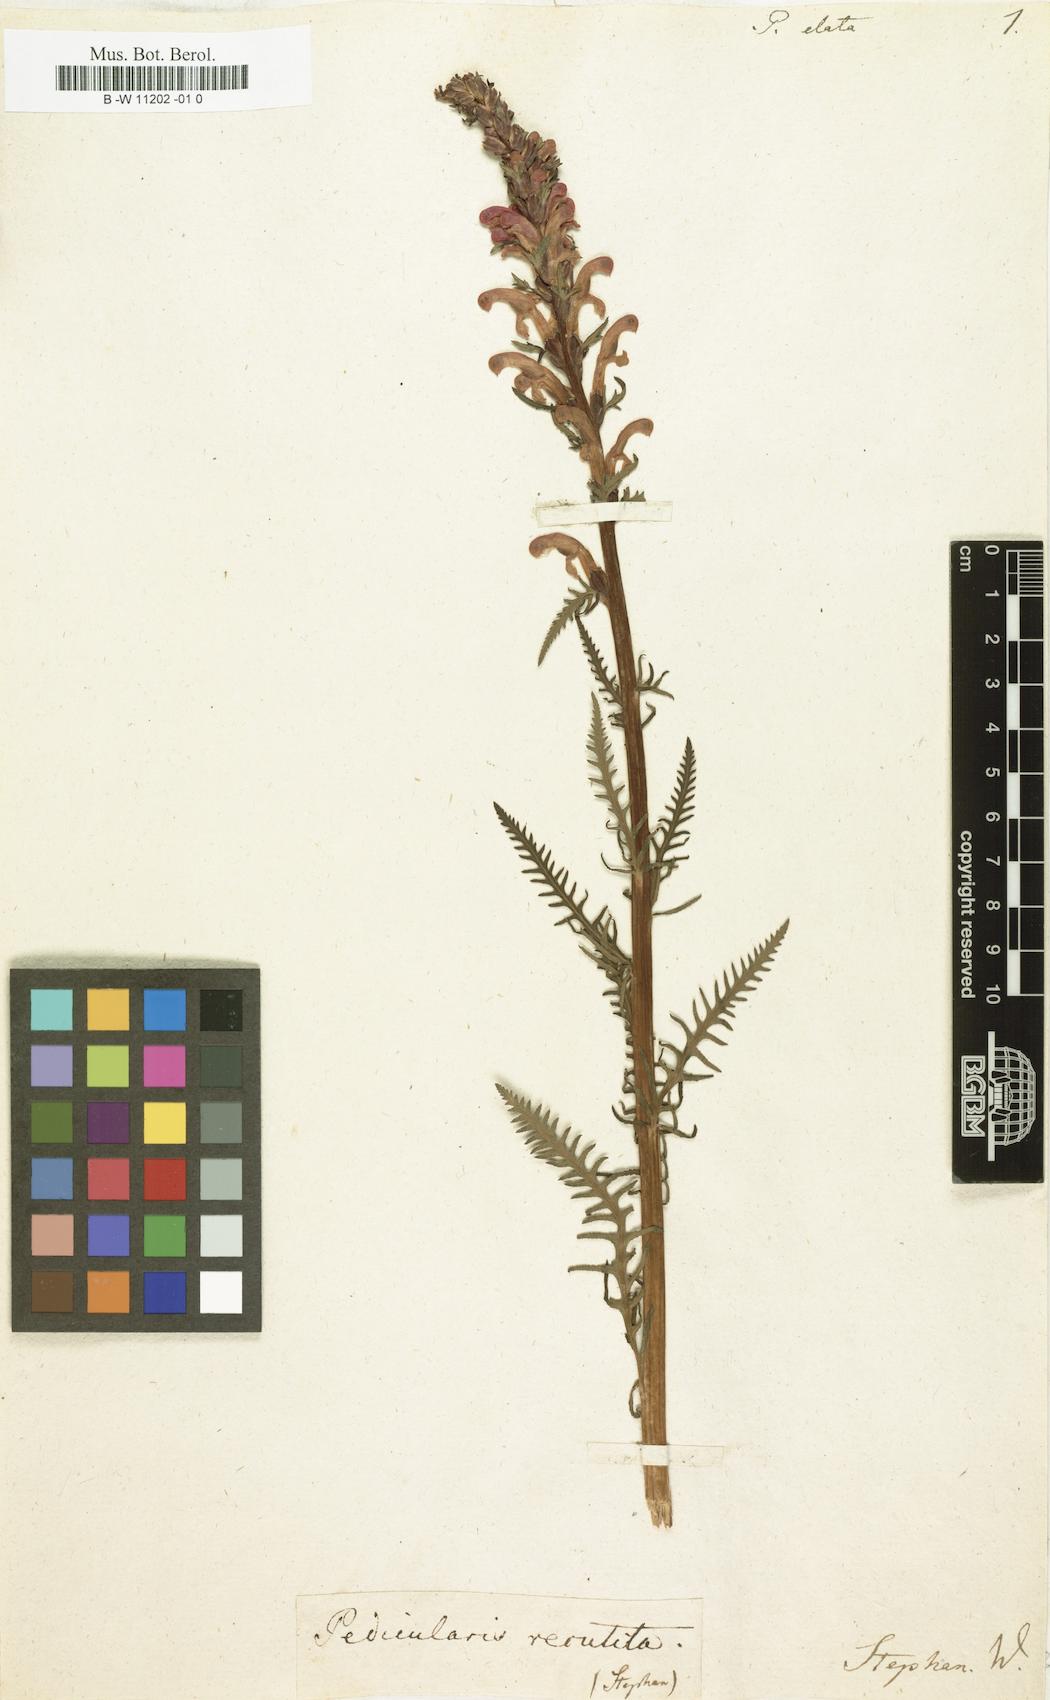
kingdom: Plantae
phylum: Tracheophyta
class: Magnoliopsida
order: Lamiales
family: Orobanchaceae
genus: Pedicularis
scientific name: Pedicularis elata
